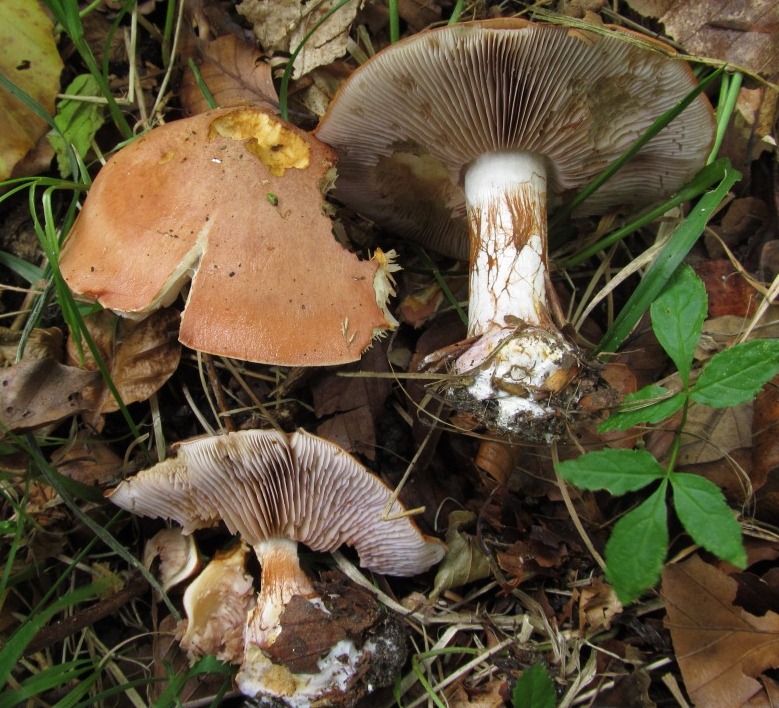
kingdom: Fungi
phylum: Basidiomycota
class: Agaricomycetes
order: Agaricales
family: Cortinariaceae
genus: Calonarius
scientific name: Calonarius arcuatorum
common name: violetflaget slørhat
